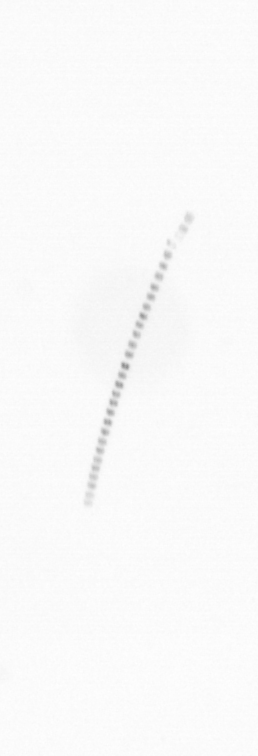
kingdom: Chromista
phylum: Ochrophyta
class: Bacillariophyceae
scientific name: Bacillariophyceae
